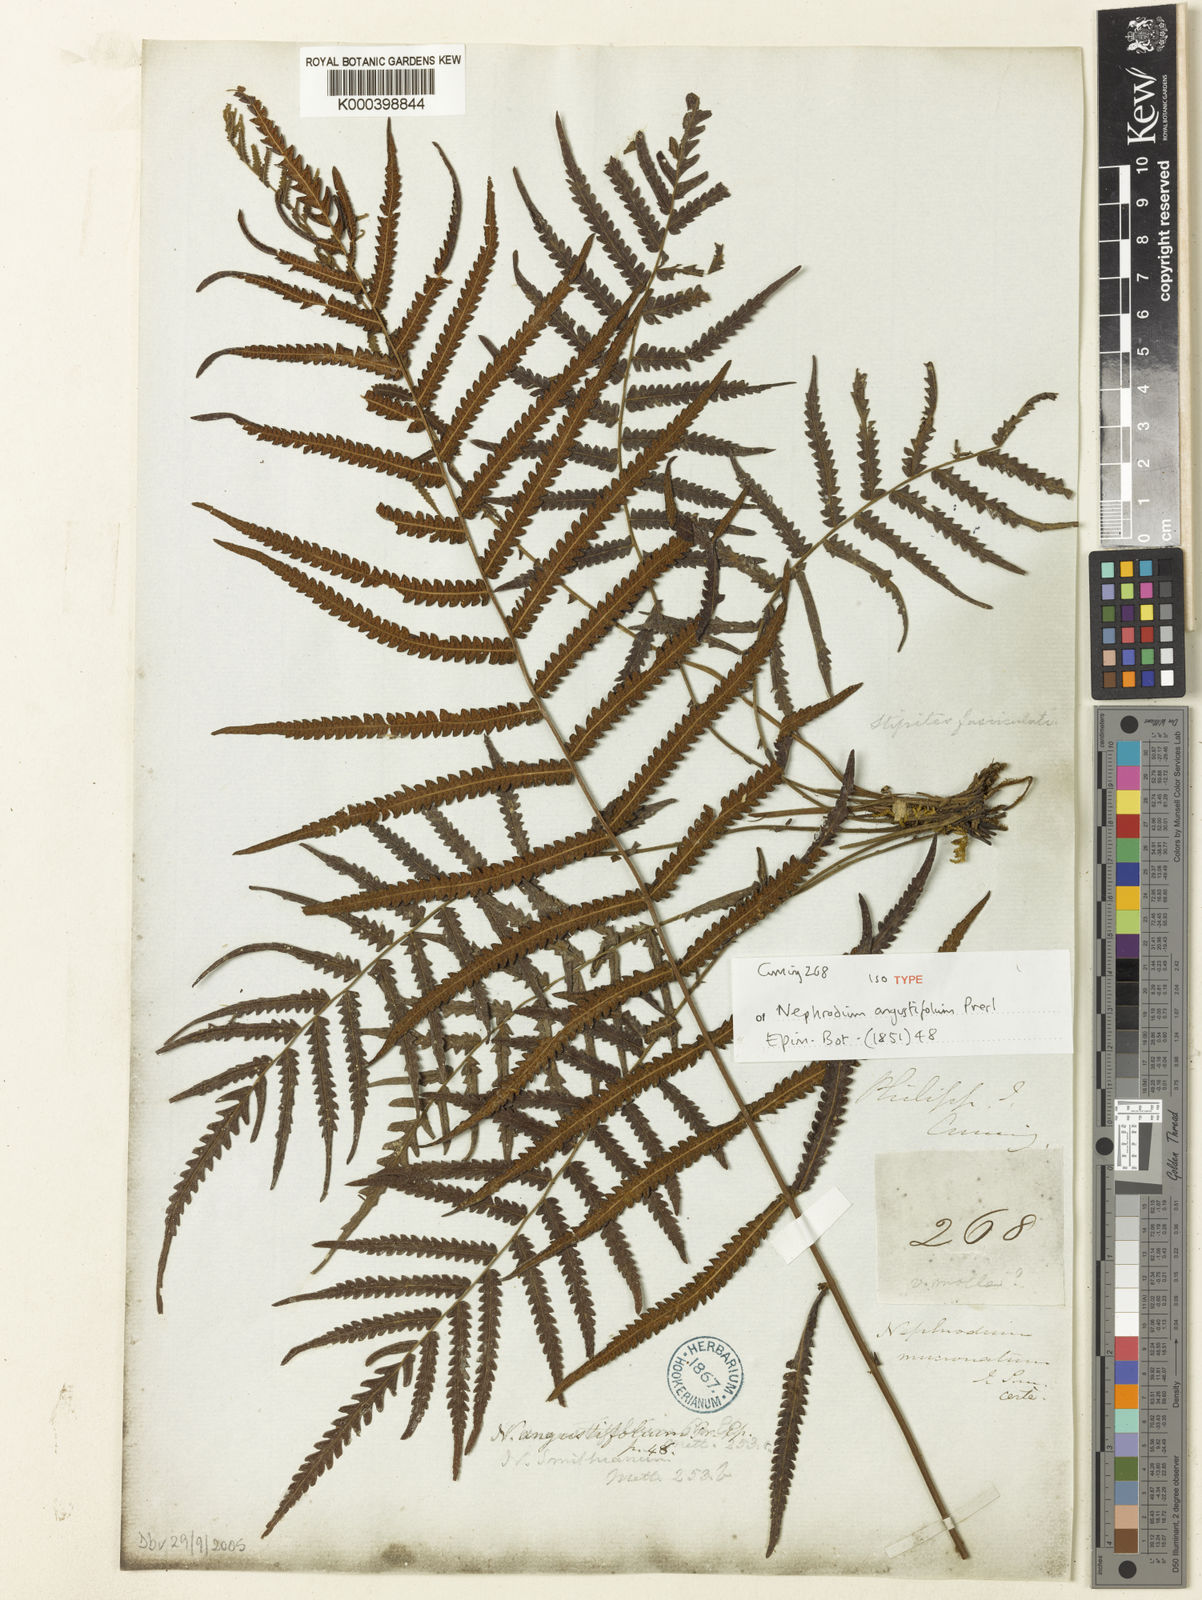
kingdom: Plantae
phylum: Tracheophyta
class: Polypodiopsida
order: Polypodiales
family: Thelypteridaceae
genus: Sphaerostephanos
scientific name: Sphaerostephanos angustifolius
